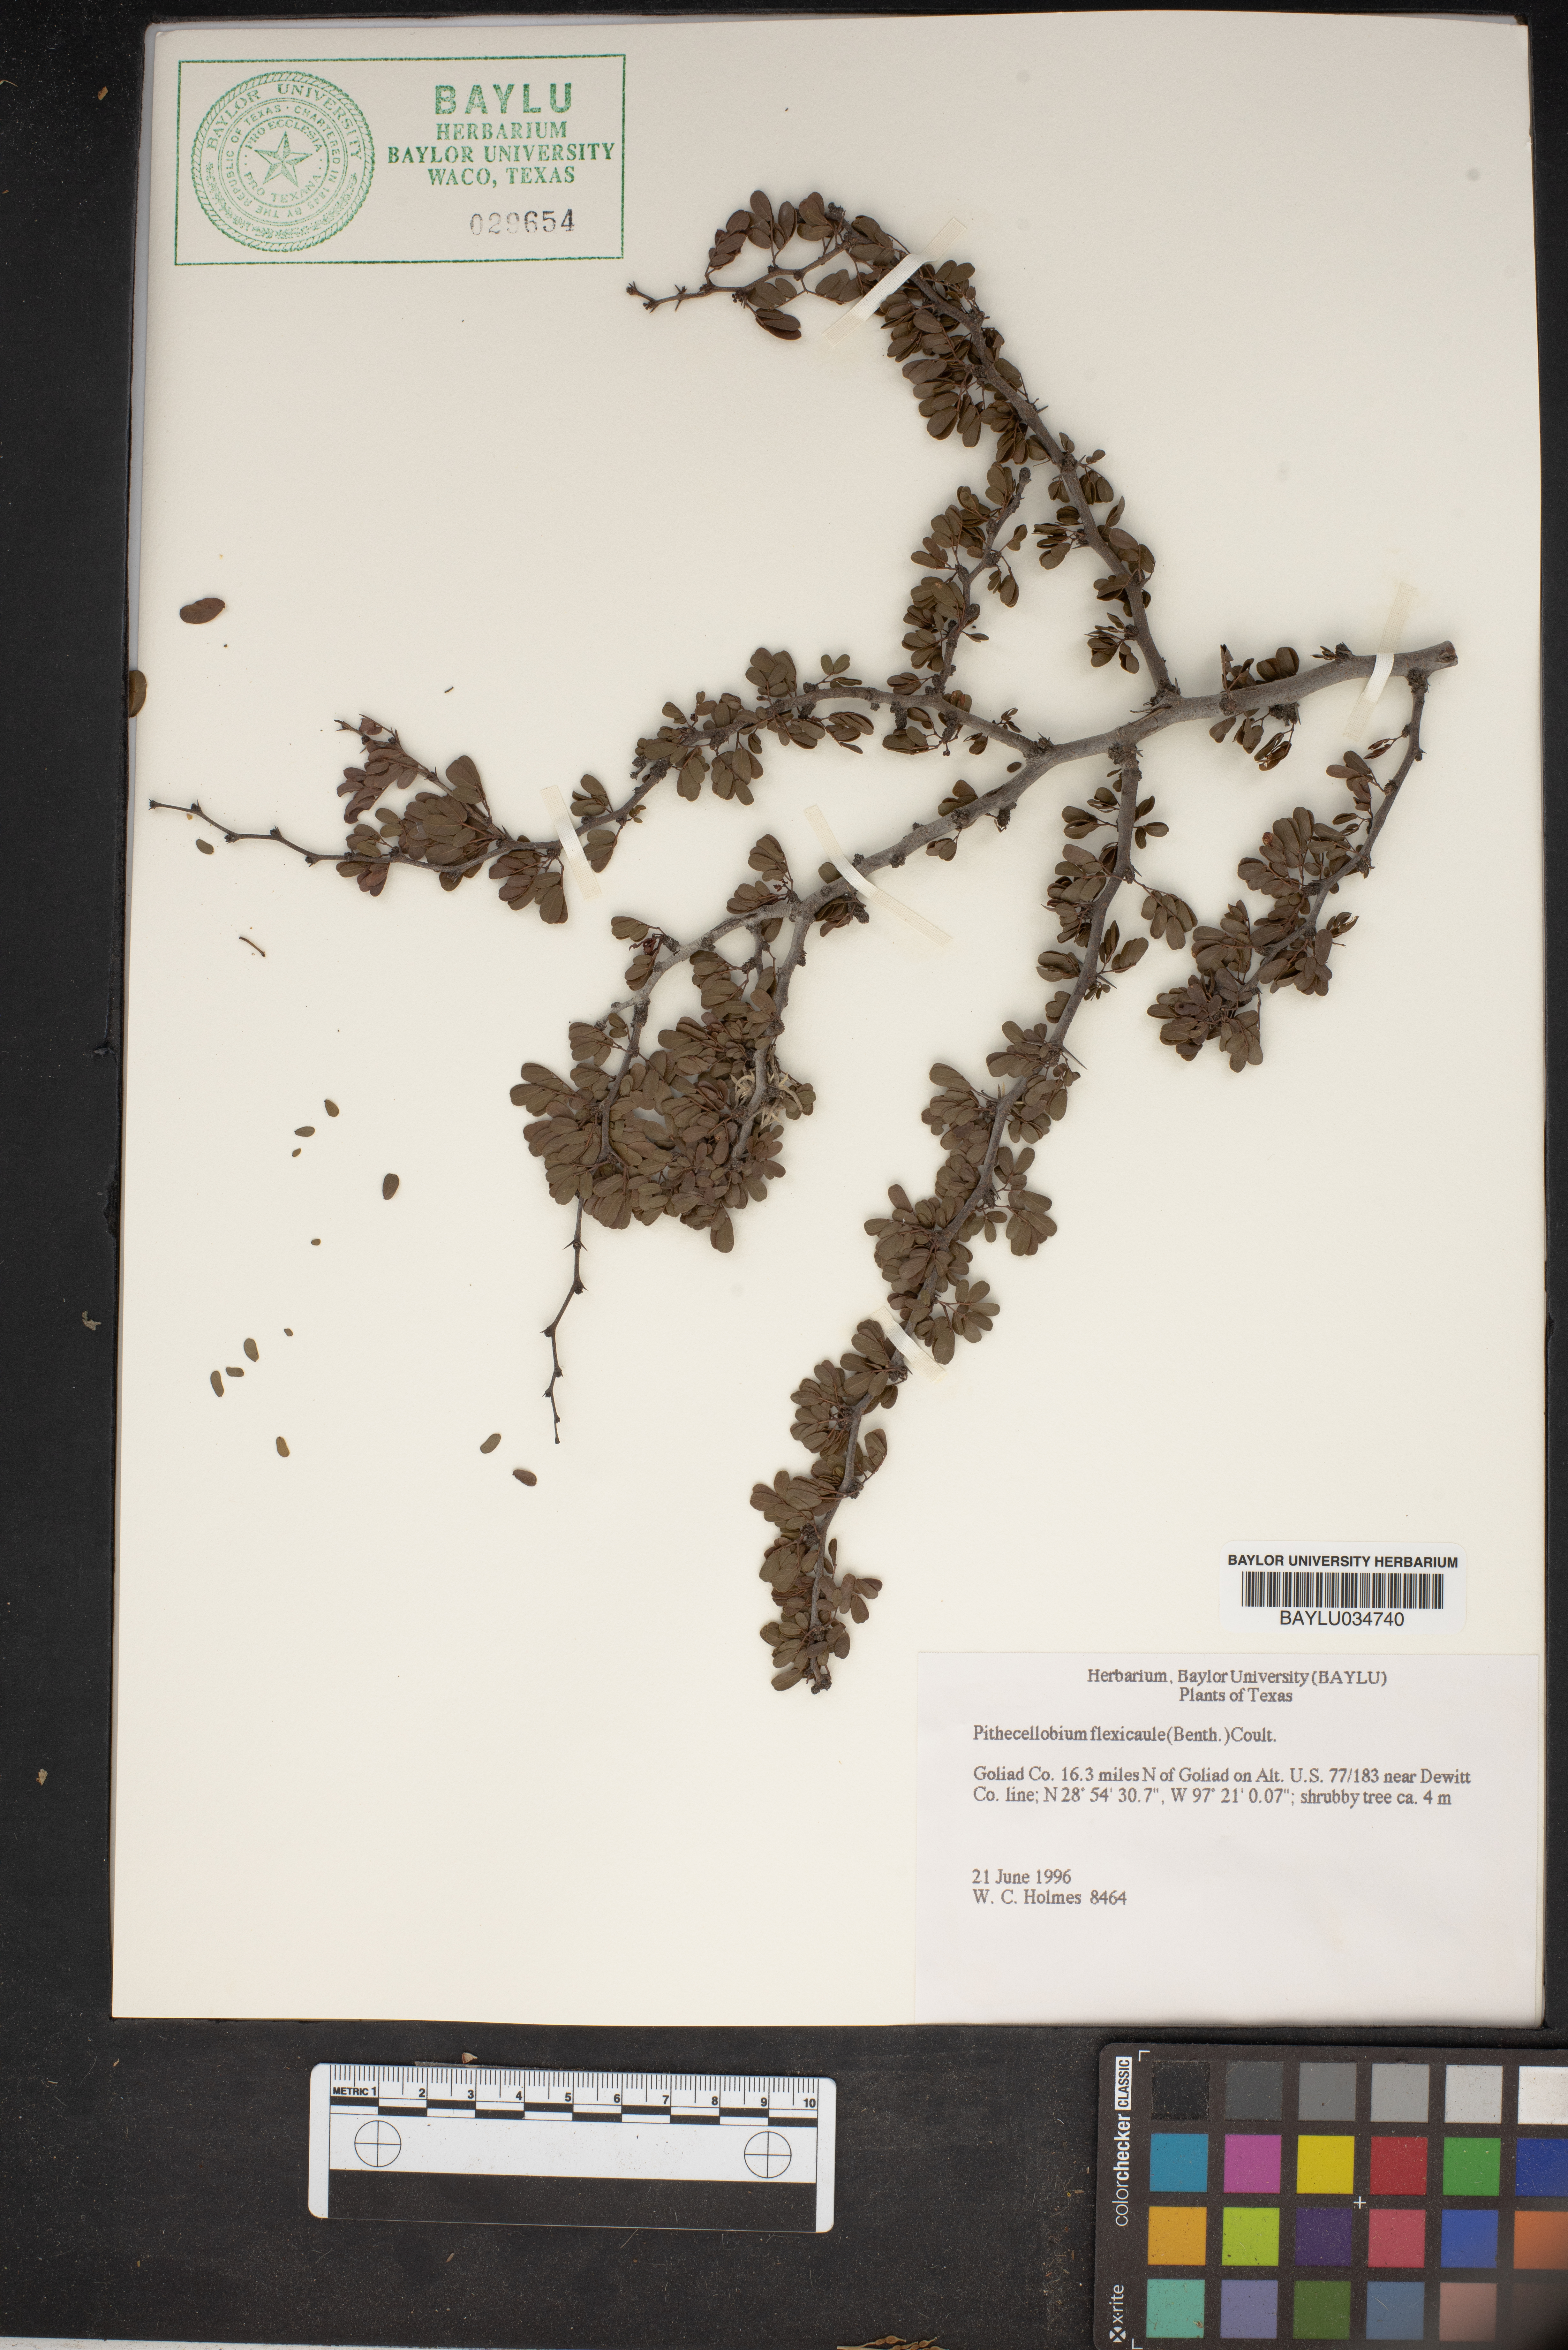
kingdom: Plantae
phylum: Tracheophyta
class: Magnoliopsida
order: Fabales
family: Fabaceae
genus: Ebenopsis
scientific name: Ebenopsis ebano
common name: Ebony blackbead
